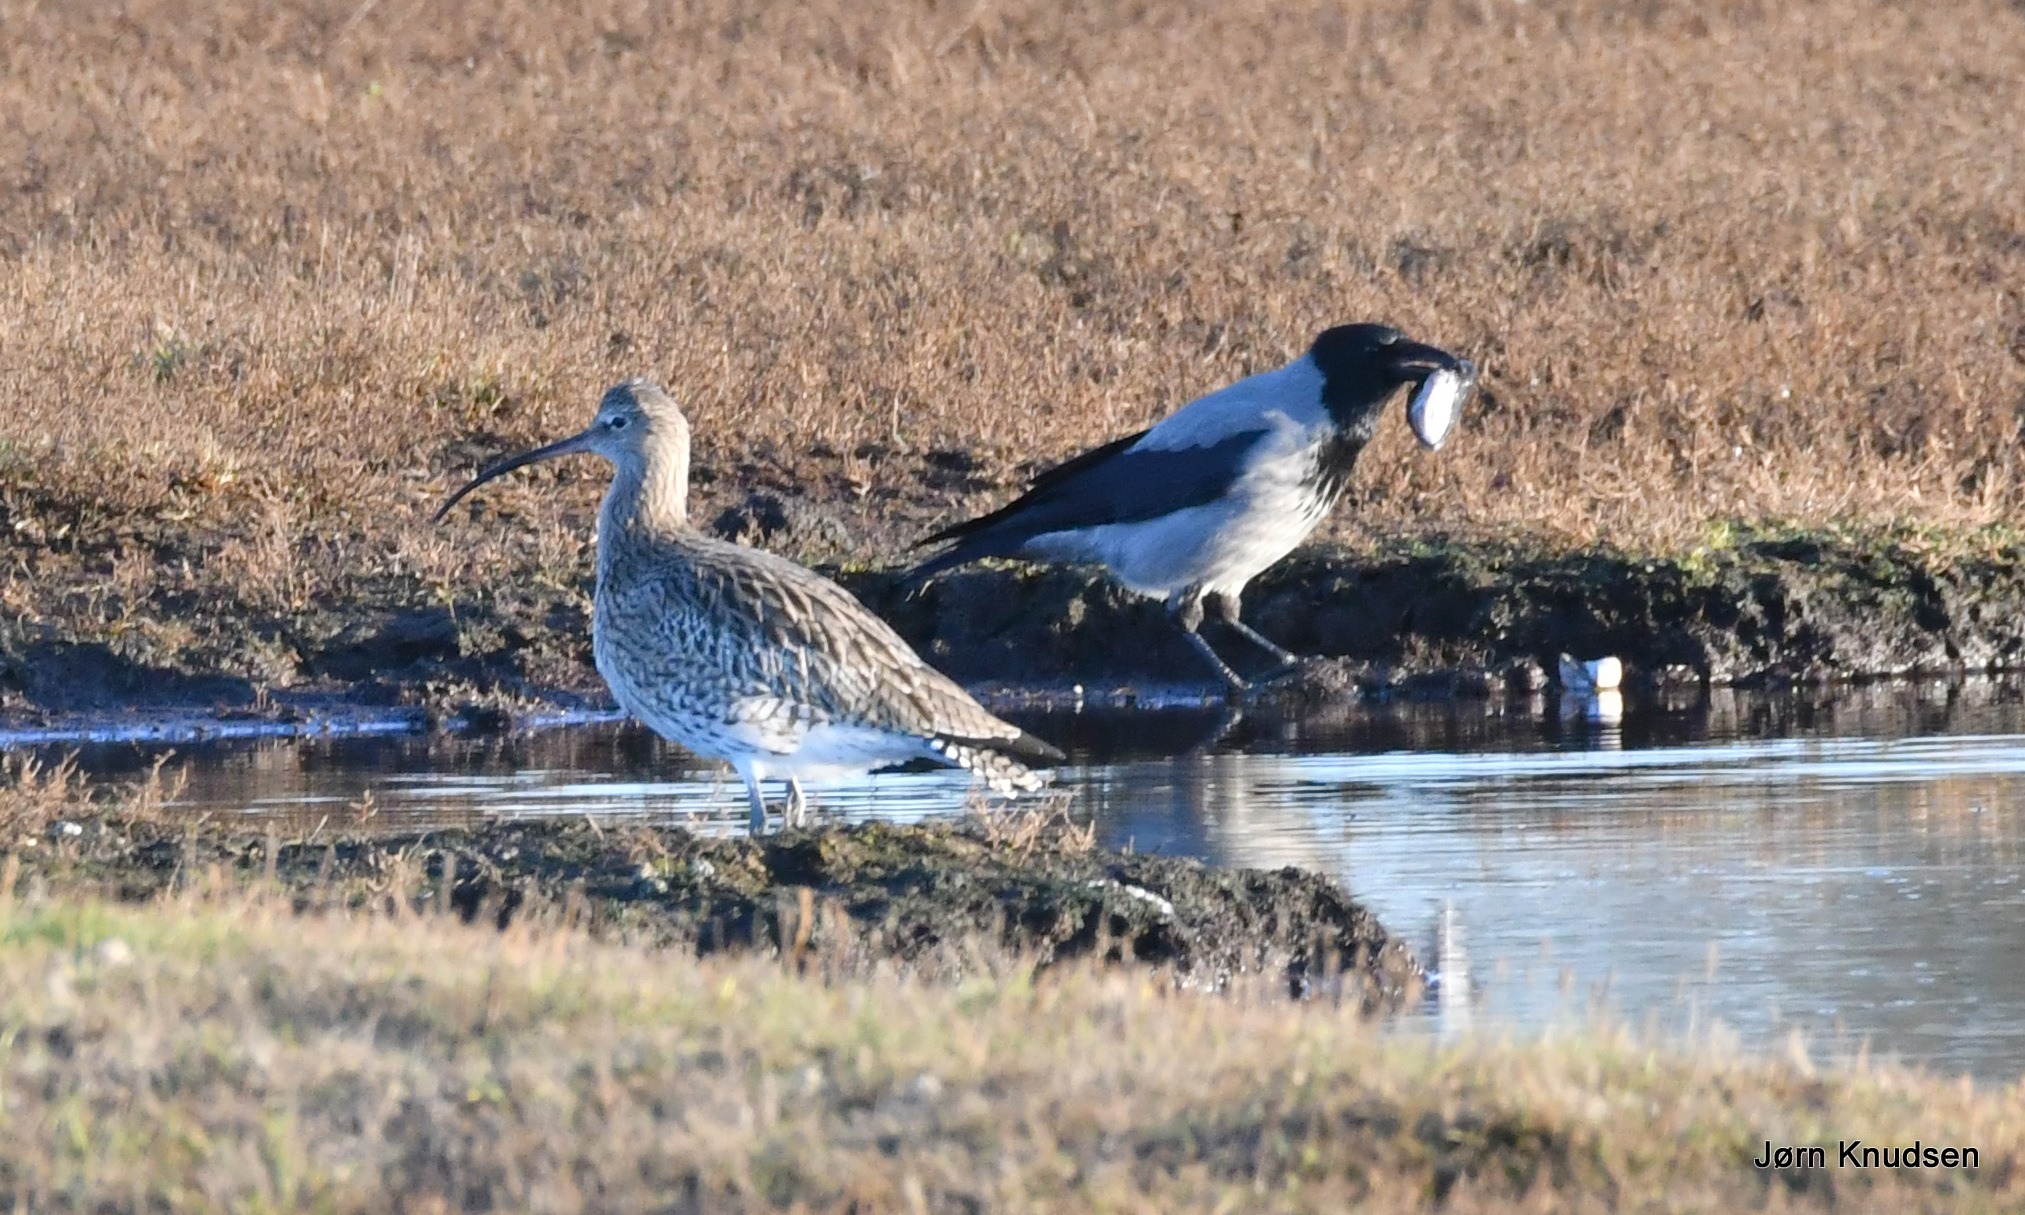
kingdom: Animalia
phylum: Chordata
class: Aves
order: Charadriiformes
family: Scolopacidae
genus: Numenius
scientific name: Numenius arquata
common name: Storspove
